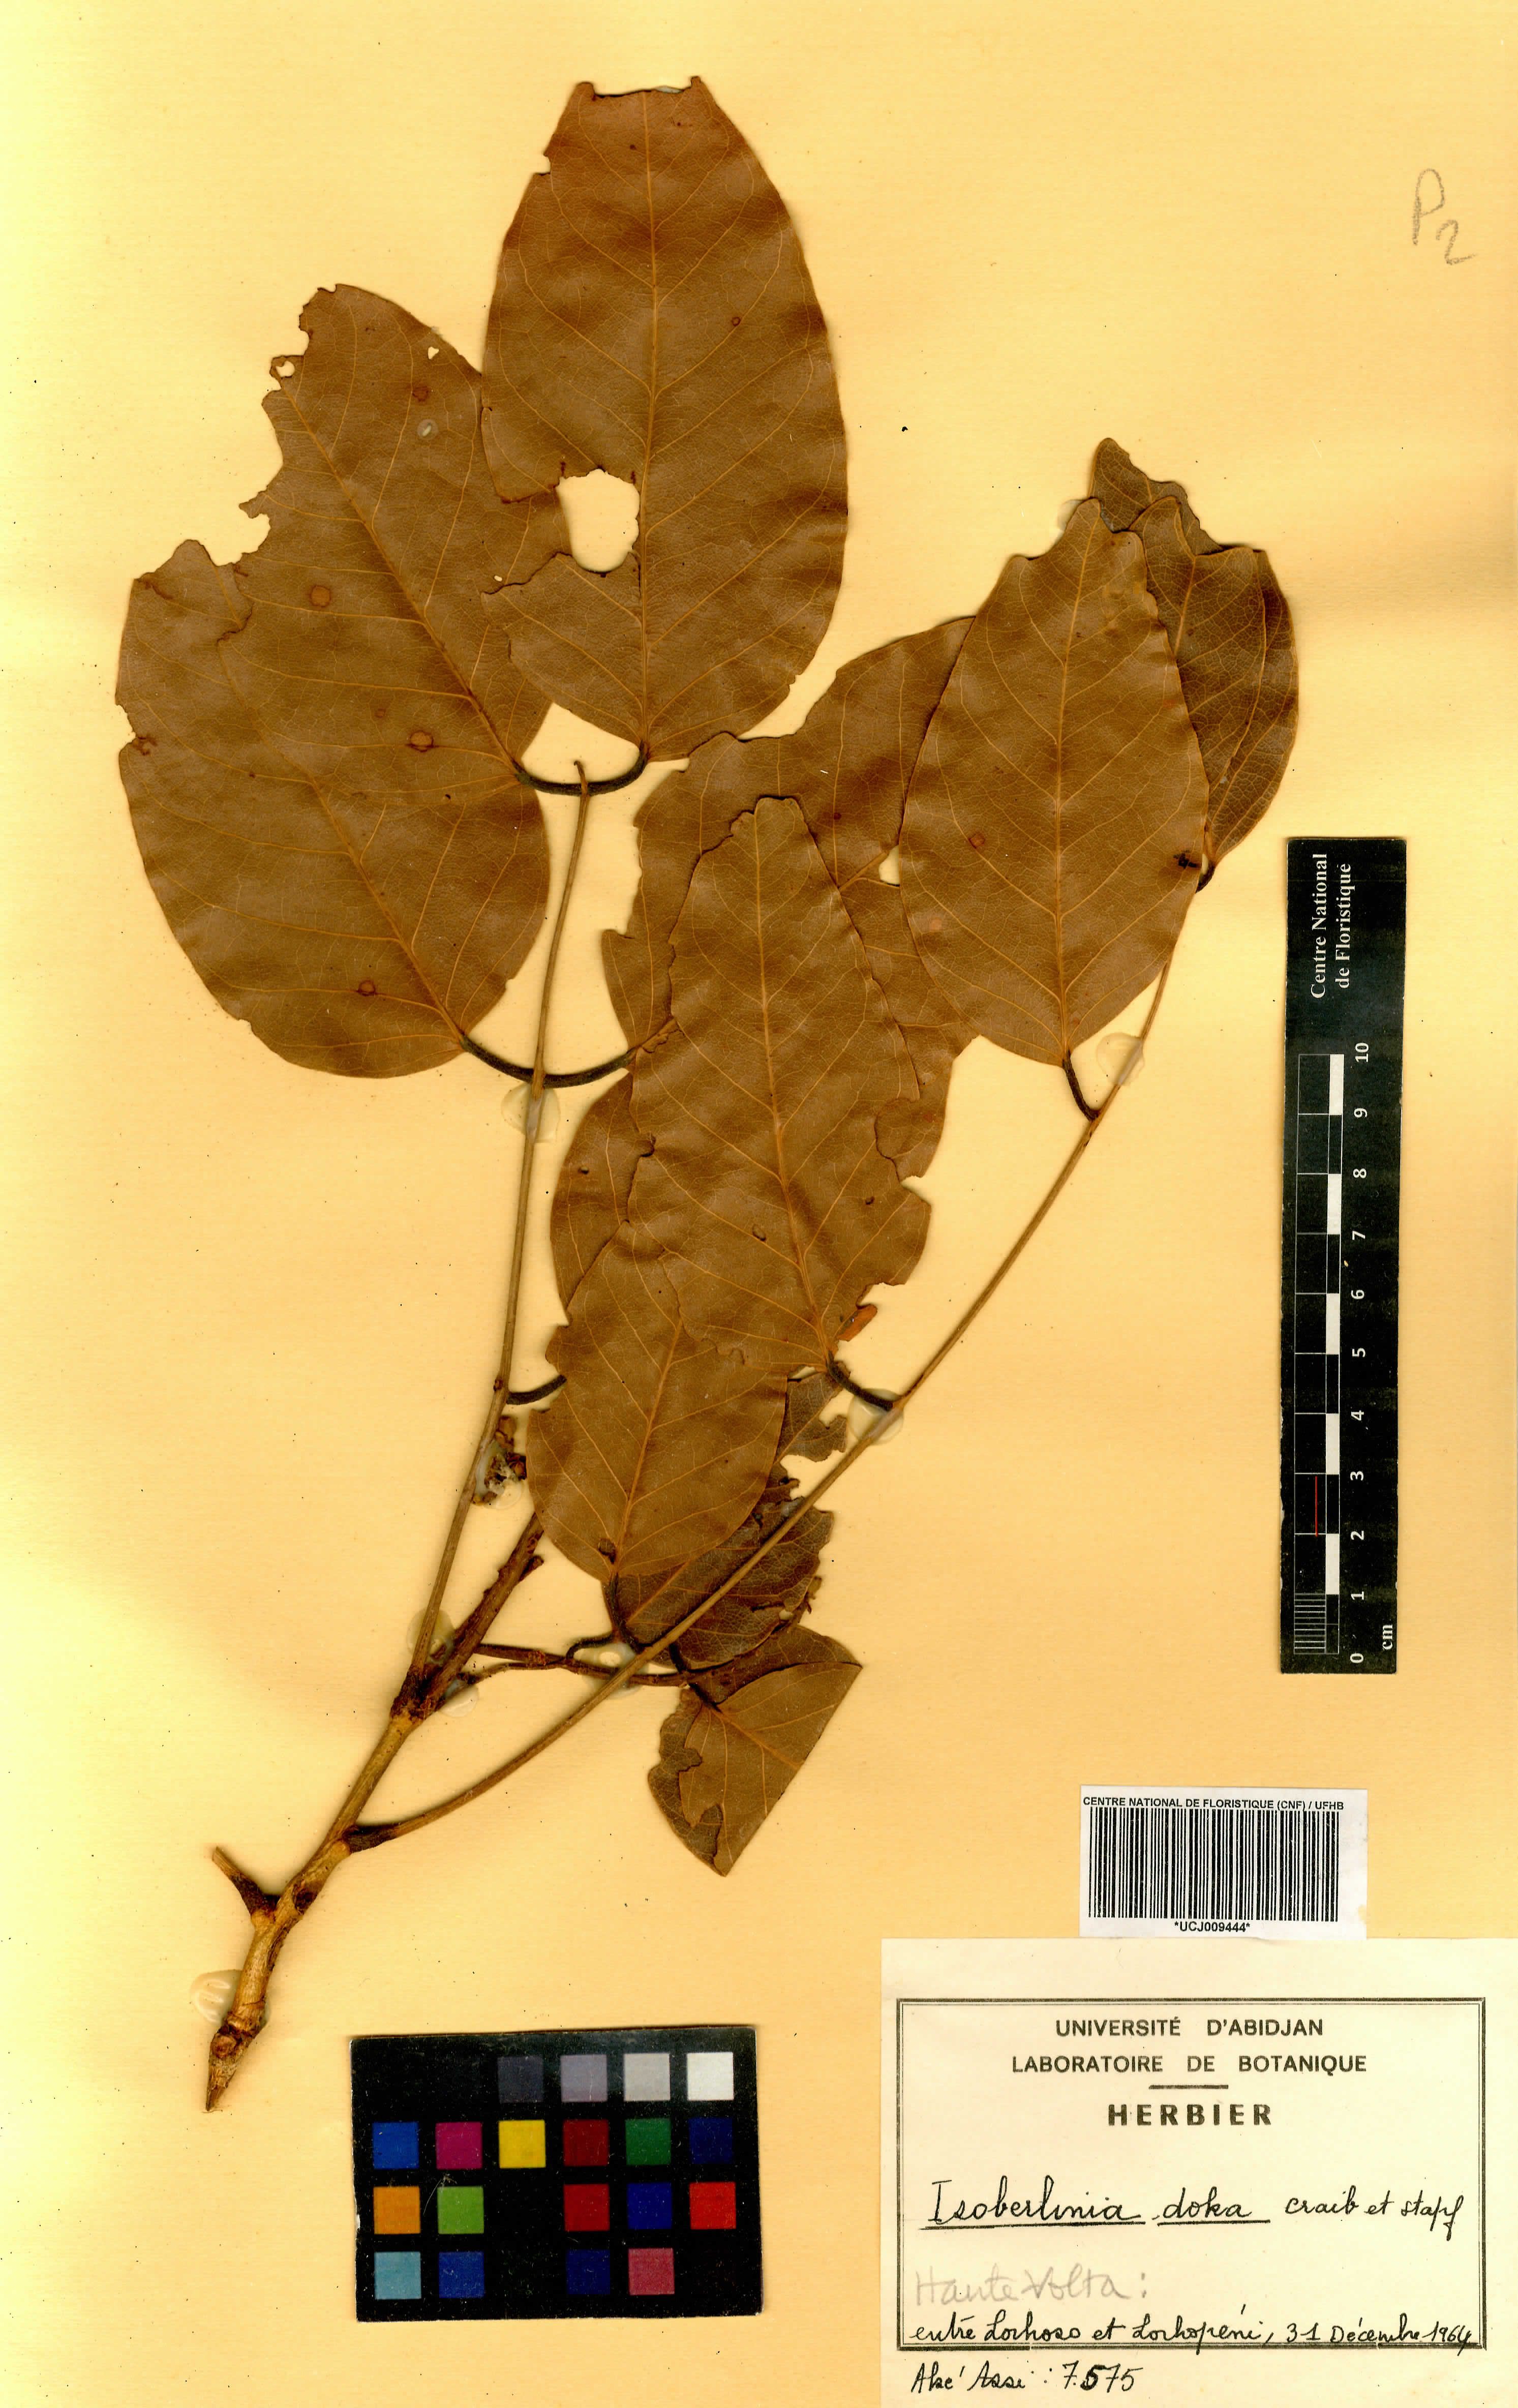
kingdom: Plantae
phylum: Tracheophyta
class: Magnoliopsida
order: Fabales
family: Fabaceae
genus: Isoberlinia
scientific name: Isoberlinia doka
